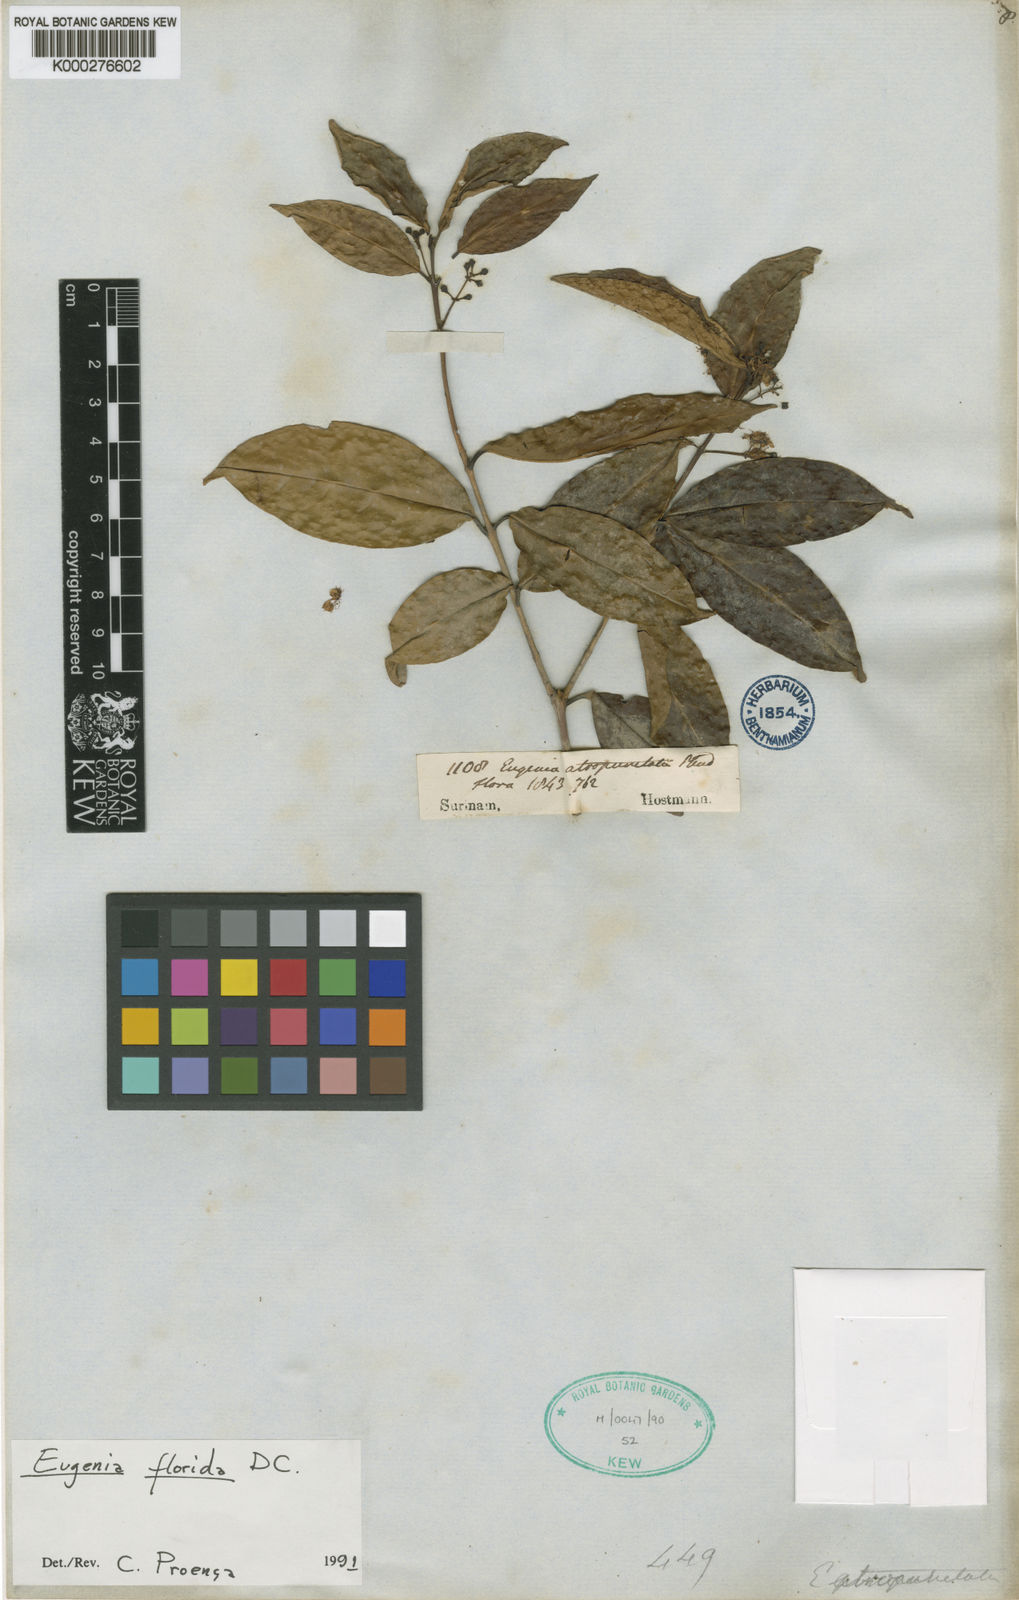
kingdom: Plantae
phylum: Tracheophyta
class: Magnoliopsida
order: Myrtales
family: Myrtaceae
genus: Eugenia
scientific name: Eugenia florida
